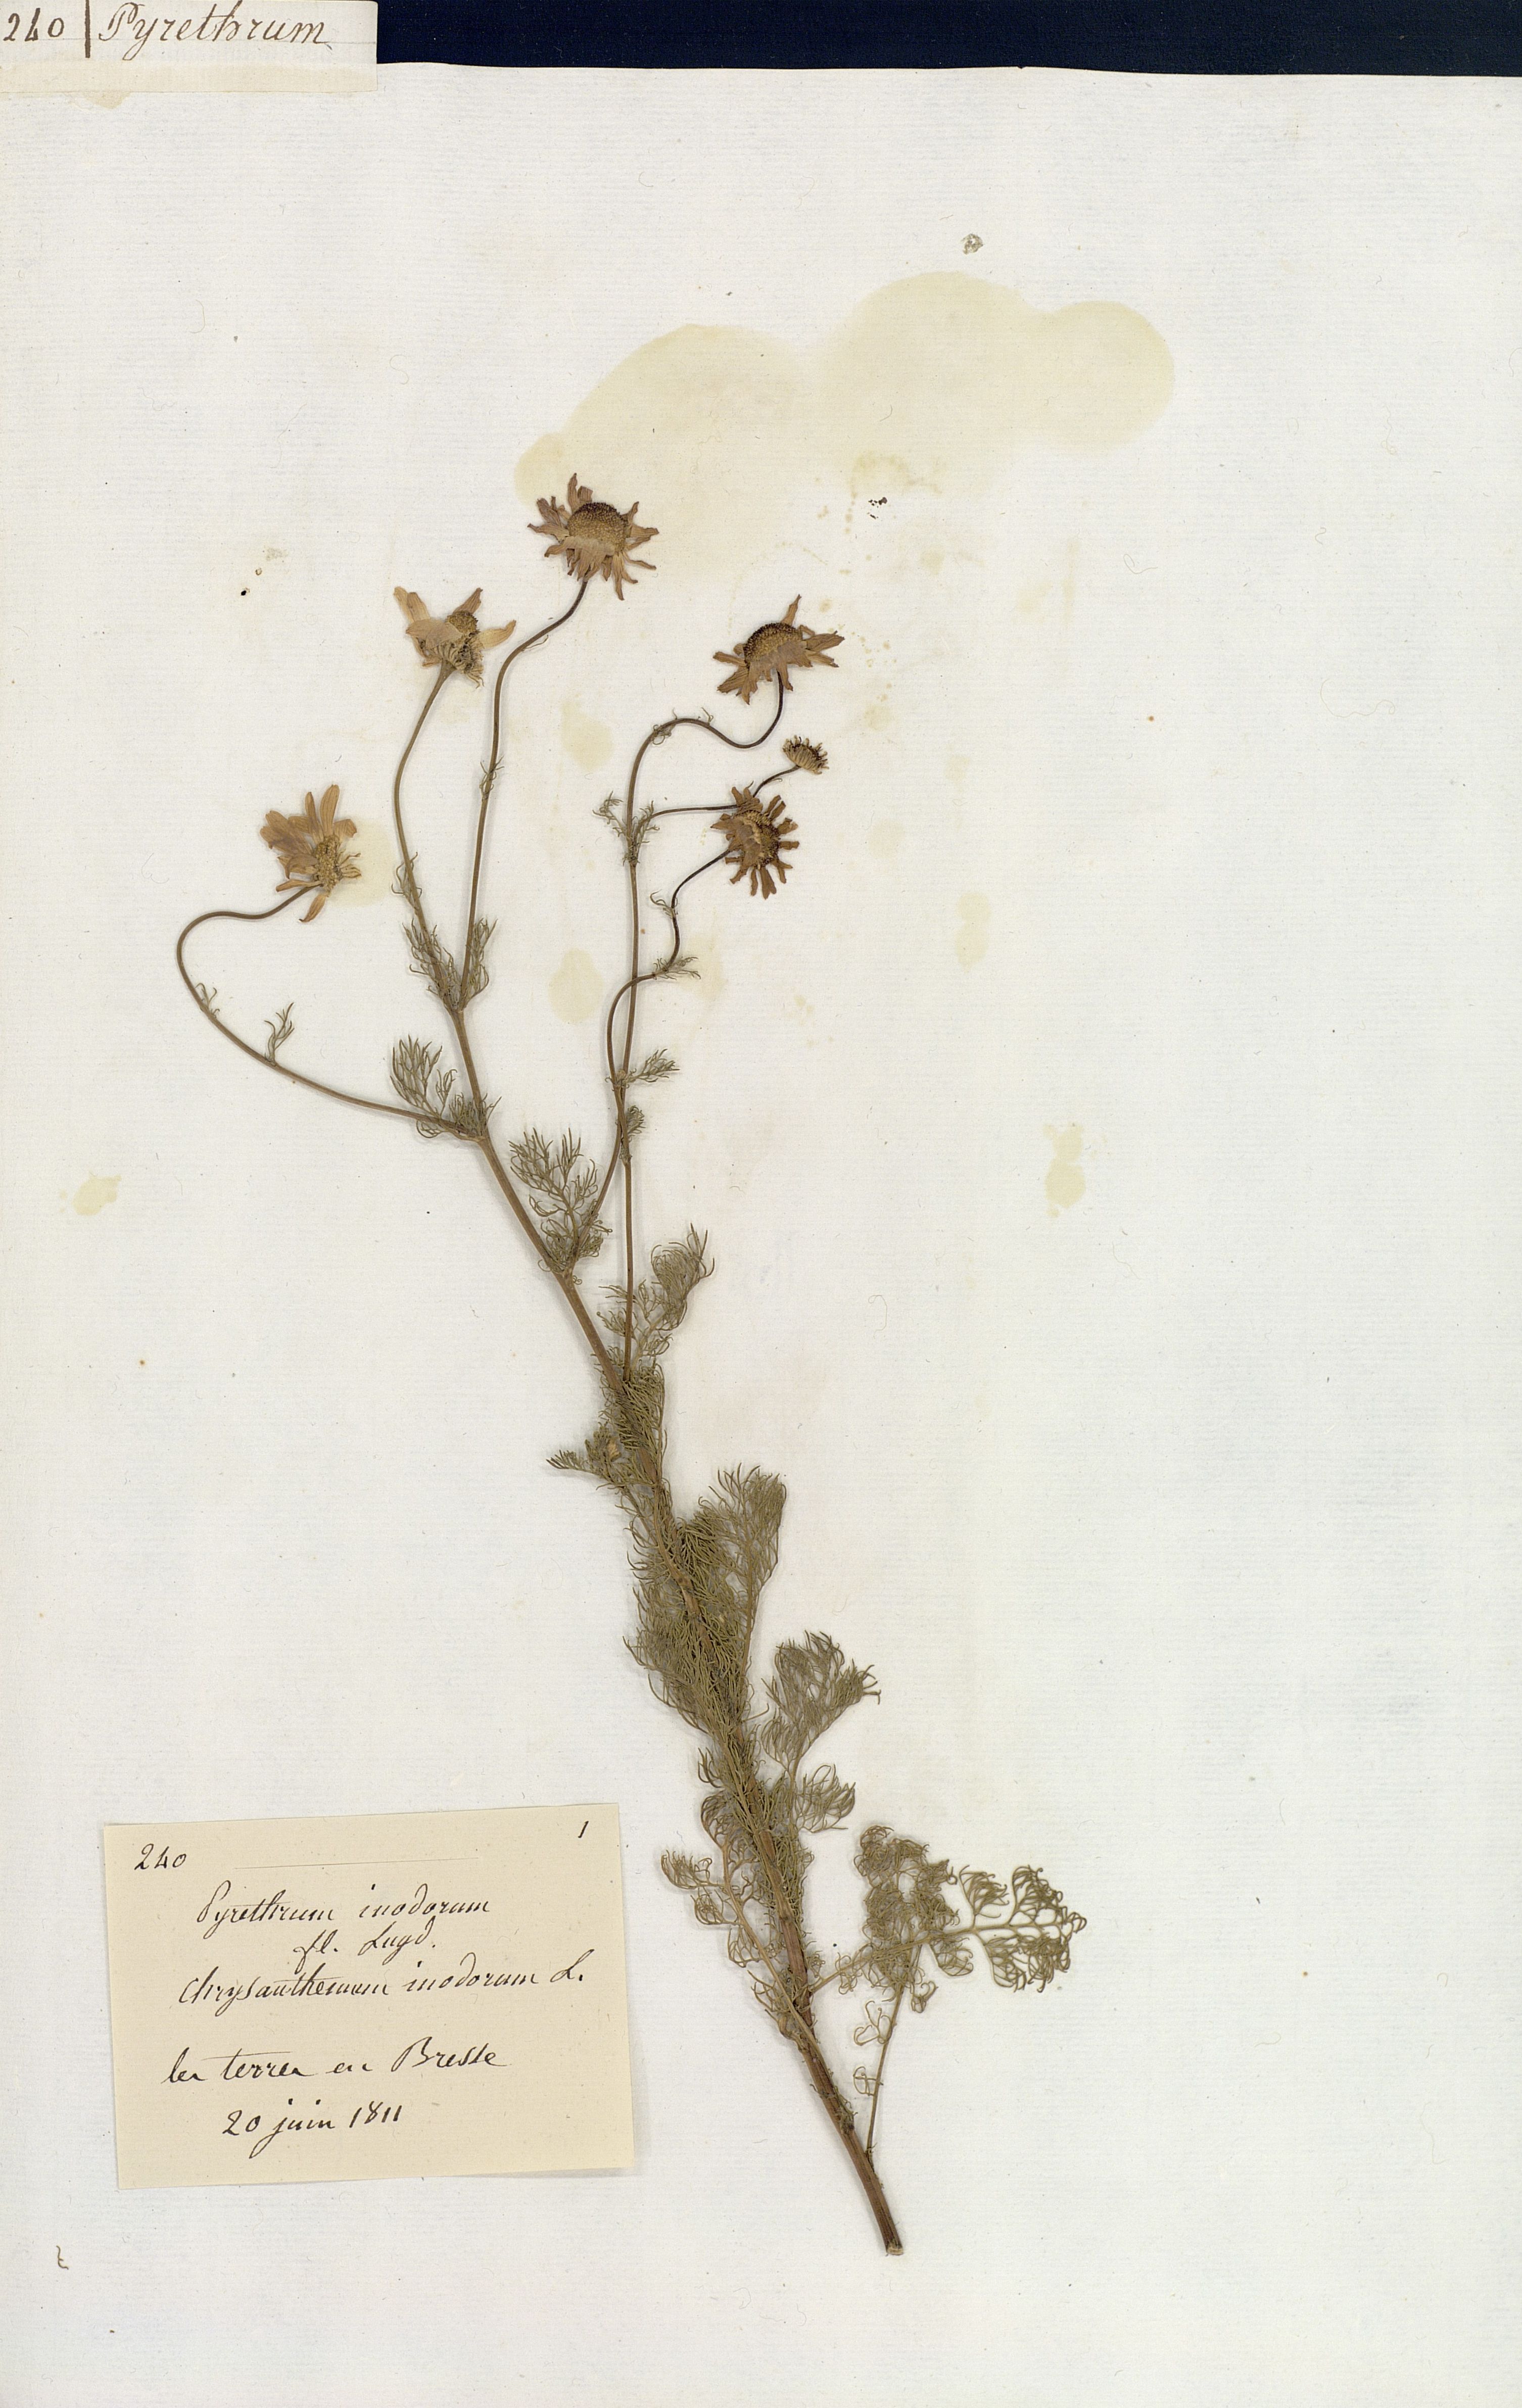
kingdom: Plantae
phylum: Tracheophyta
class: Magnoliopsida
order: Asterales
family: Asteraceae
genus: Tripleurospermum
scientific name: Tripleurospermum inodorum
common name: Scentless mayweed
